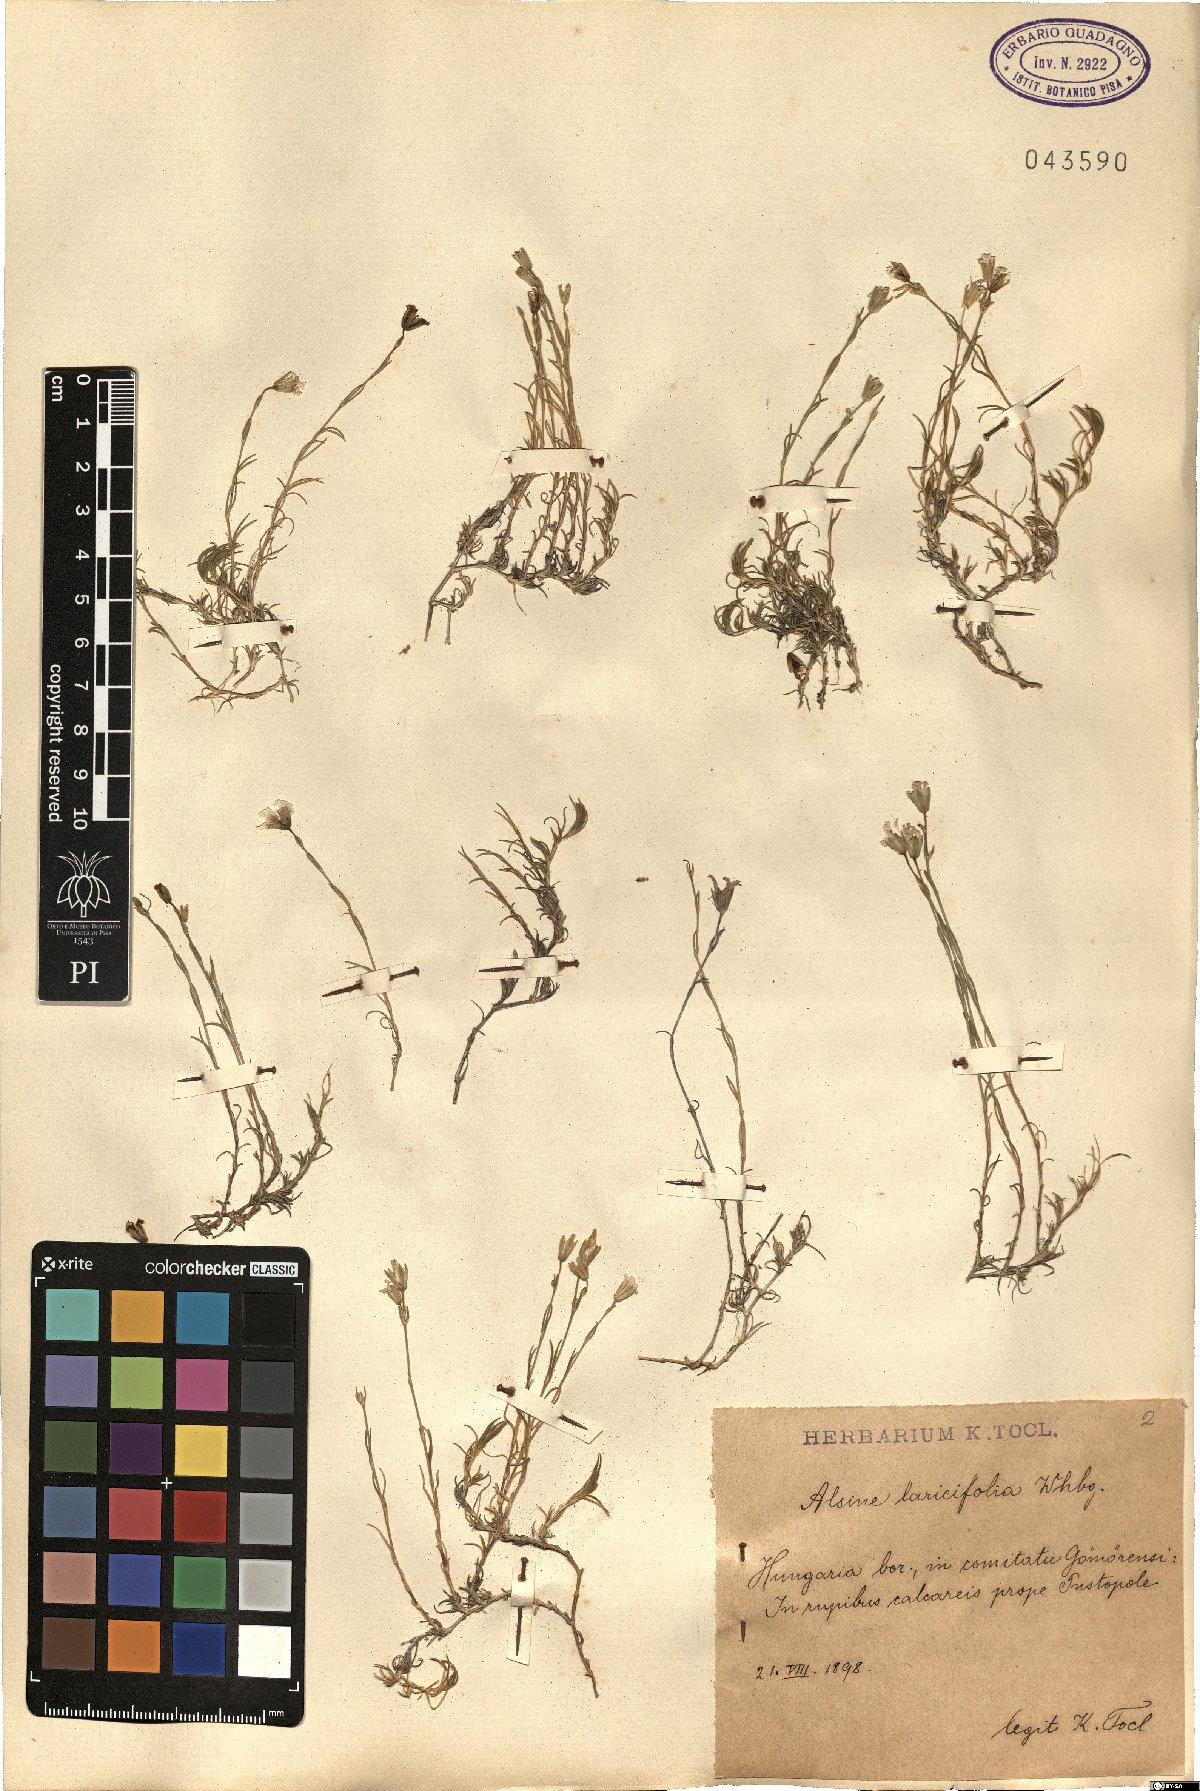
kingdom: Plantae
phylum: Tracheophyta
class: Magnoliopsida
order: Caryophyllales
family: Caryophyllaceae
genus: Cherleria
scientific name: Cherleria laricifolia
